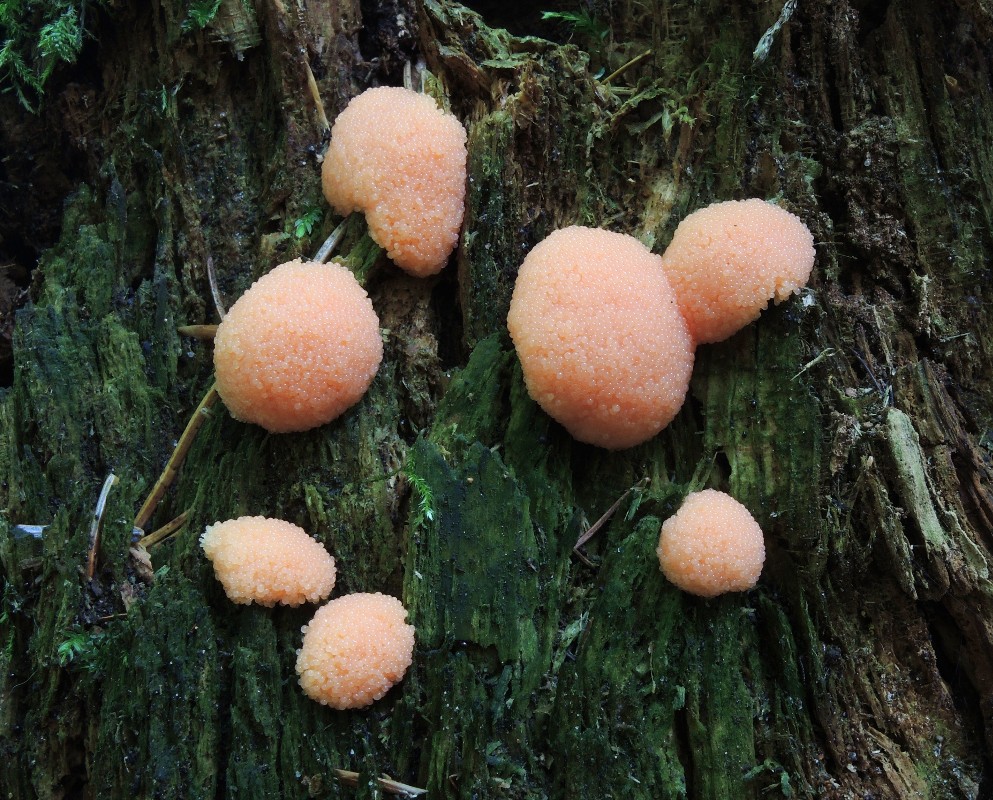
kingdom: Protozoa
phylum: Mycetozoa
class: Myxomycetes
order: Cribrariales
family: Tubiferaceae
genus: Tubifera
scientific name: Tubifera ferruginosa
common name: kanel-støvrør
